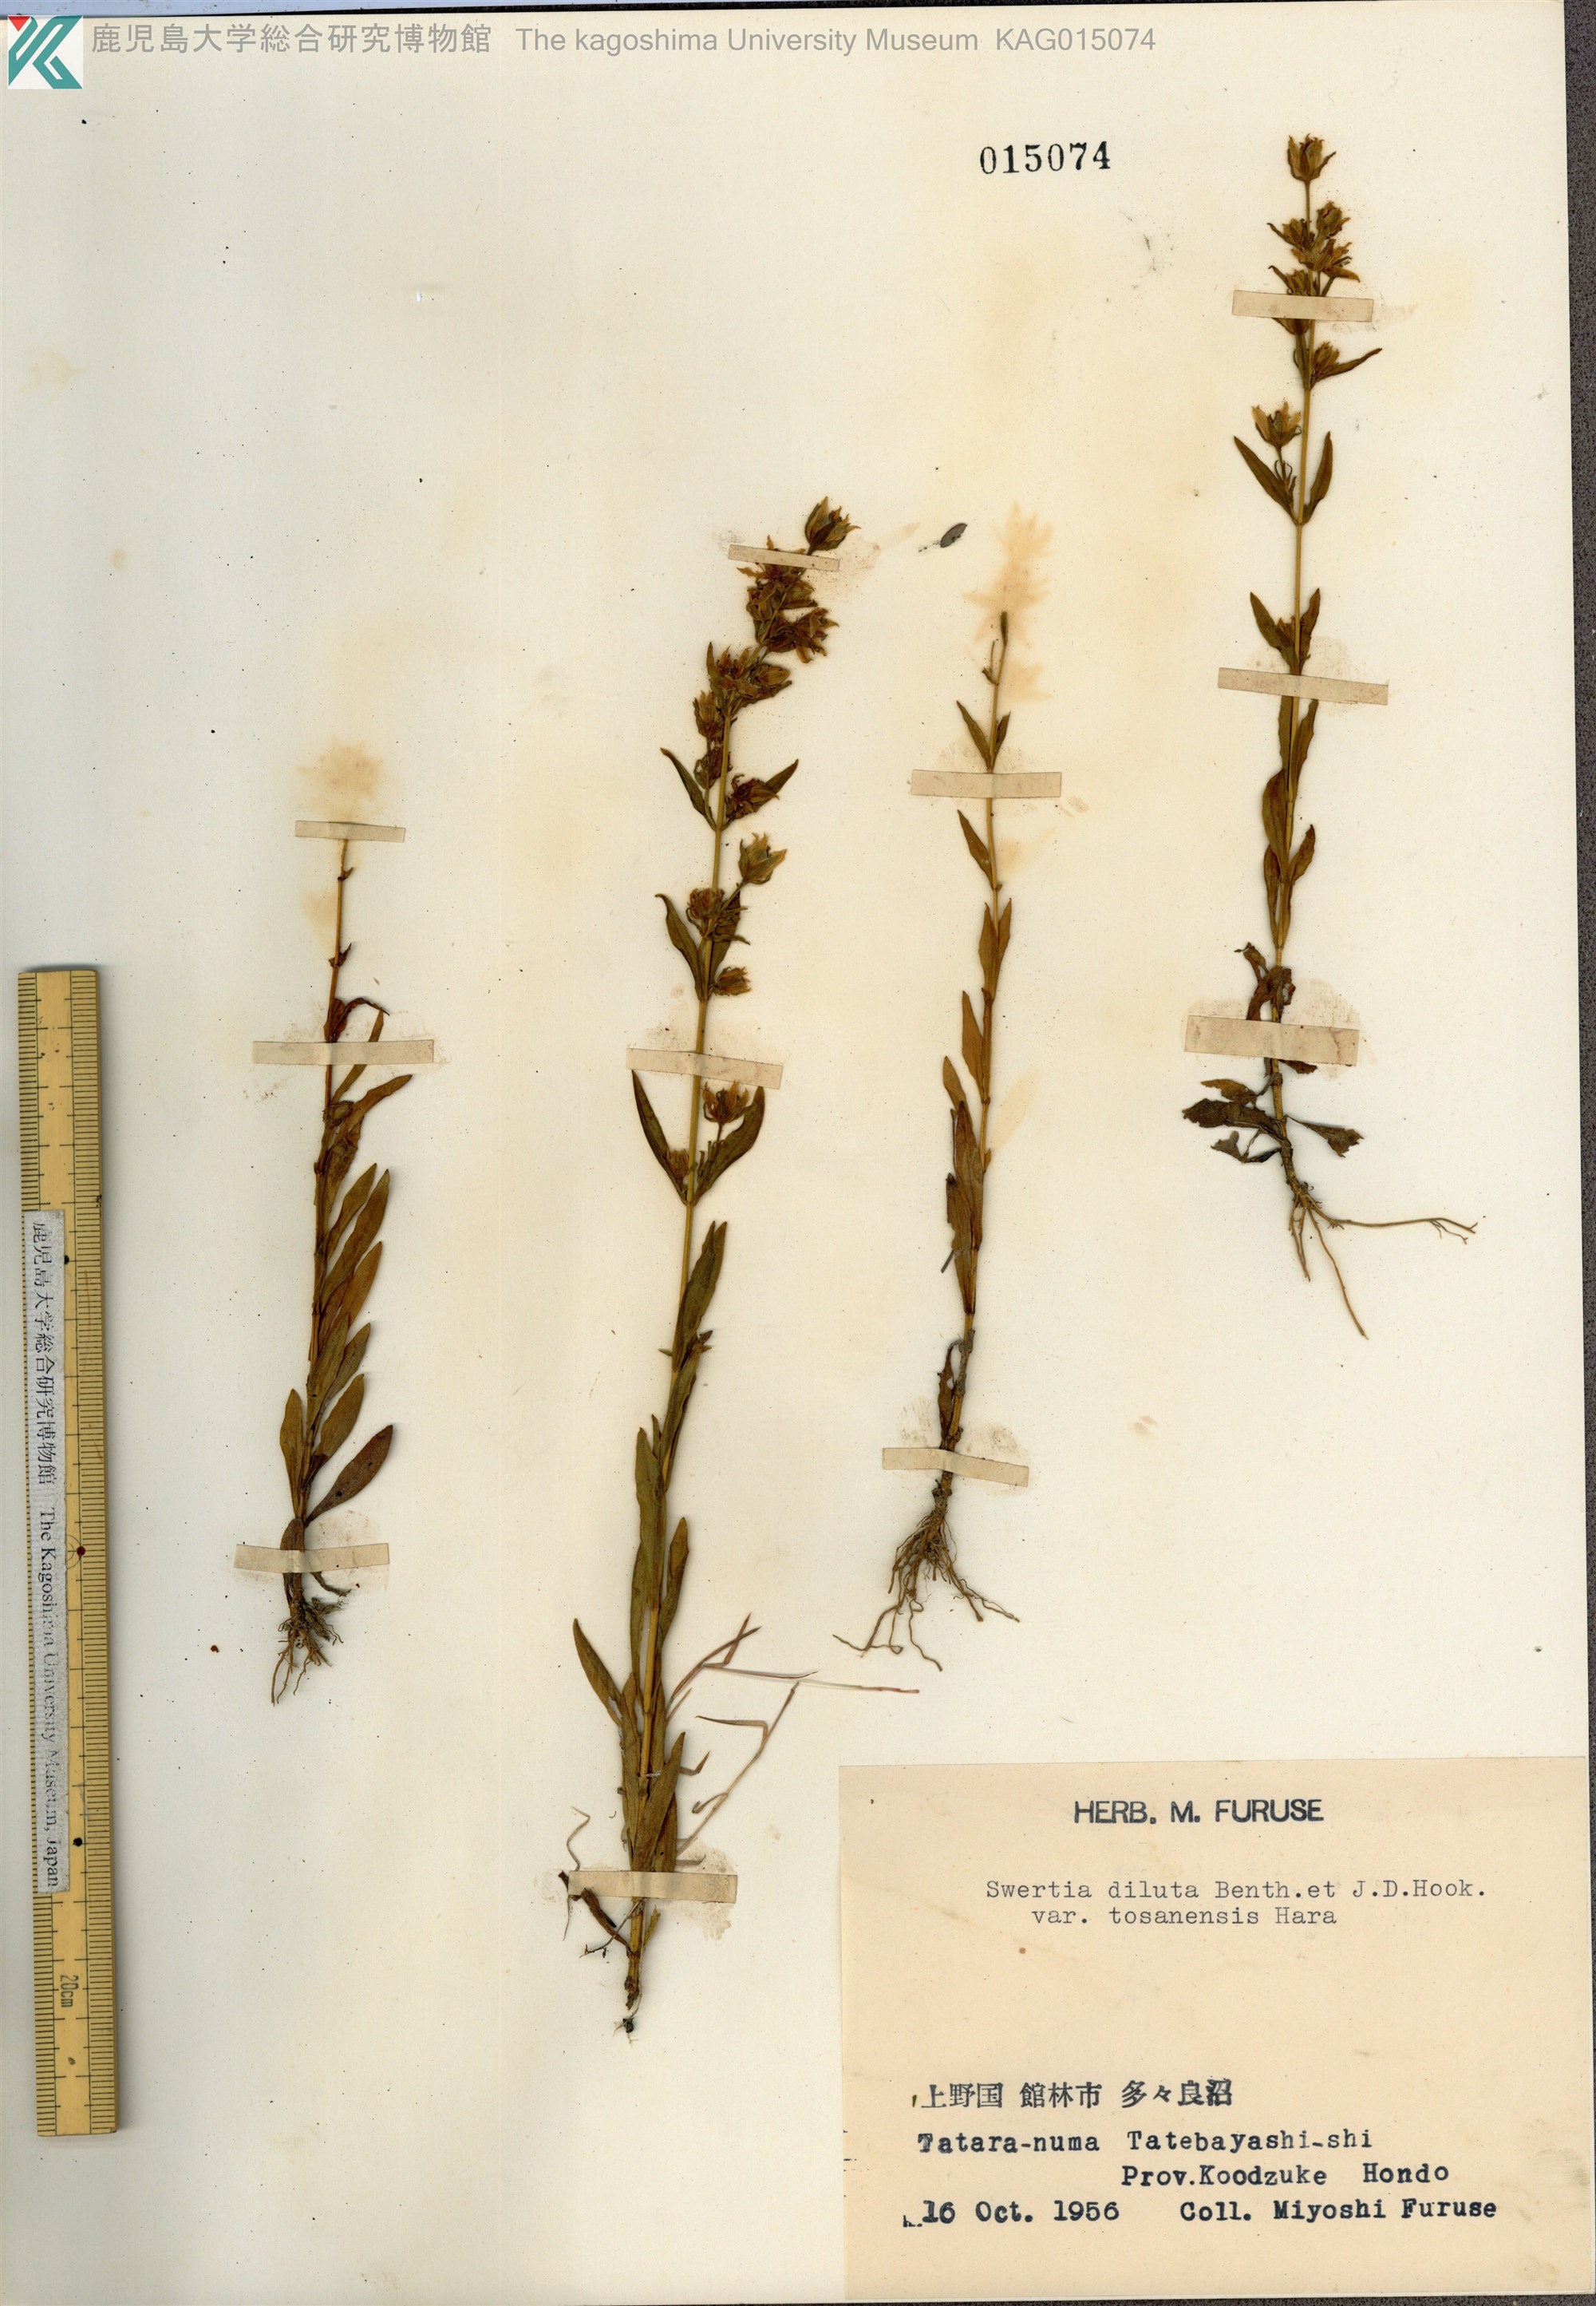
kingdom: Plantae
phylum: Tracheophyta
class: Magnoliopsida
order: Gentianales
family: Gentianaceae
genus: Swertia
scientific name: Swertia diluta
